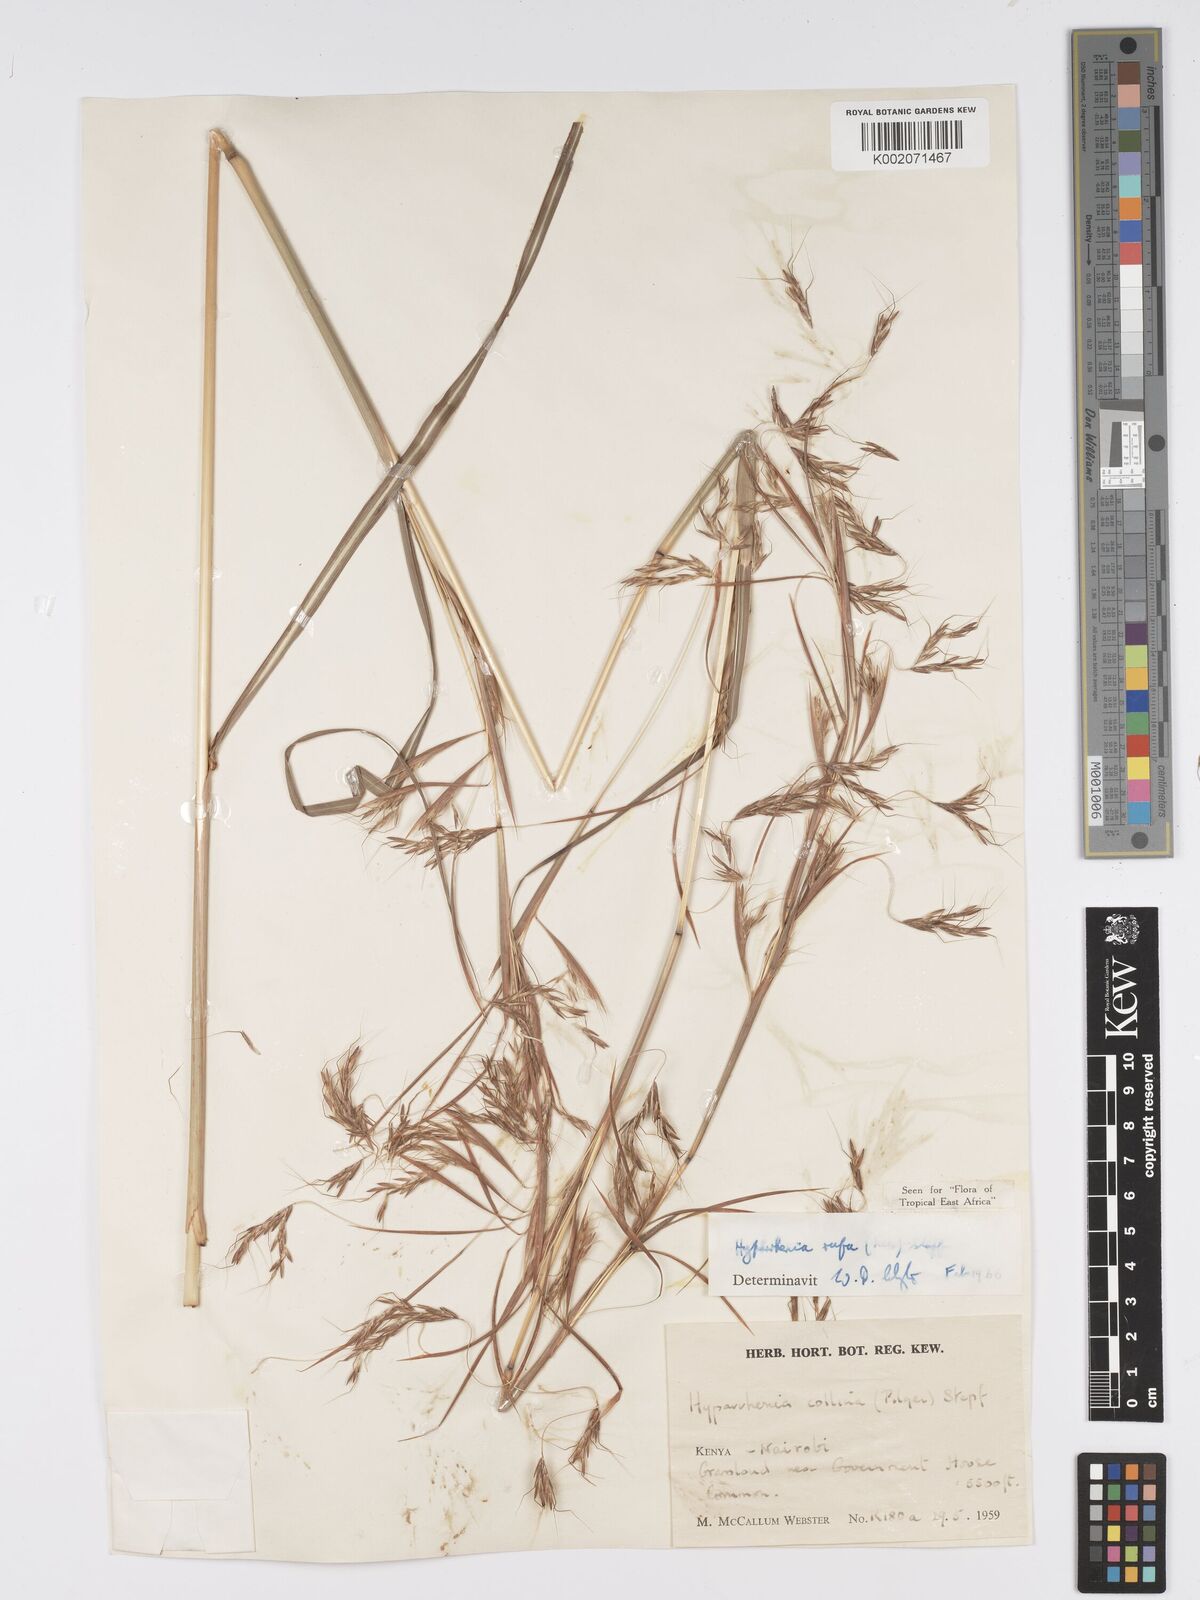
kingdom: Plantae
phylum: Tracheophyta
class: Liliopsida
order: Poales
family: Poaceae
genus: Hyparrhenia
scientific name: Hyparrhenia rufa
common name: Jaraguagrass
